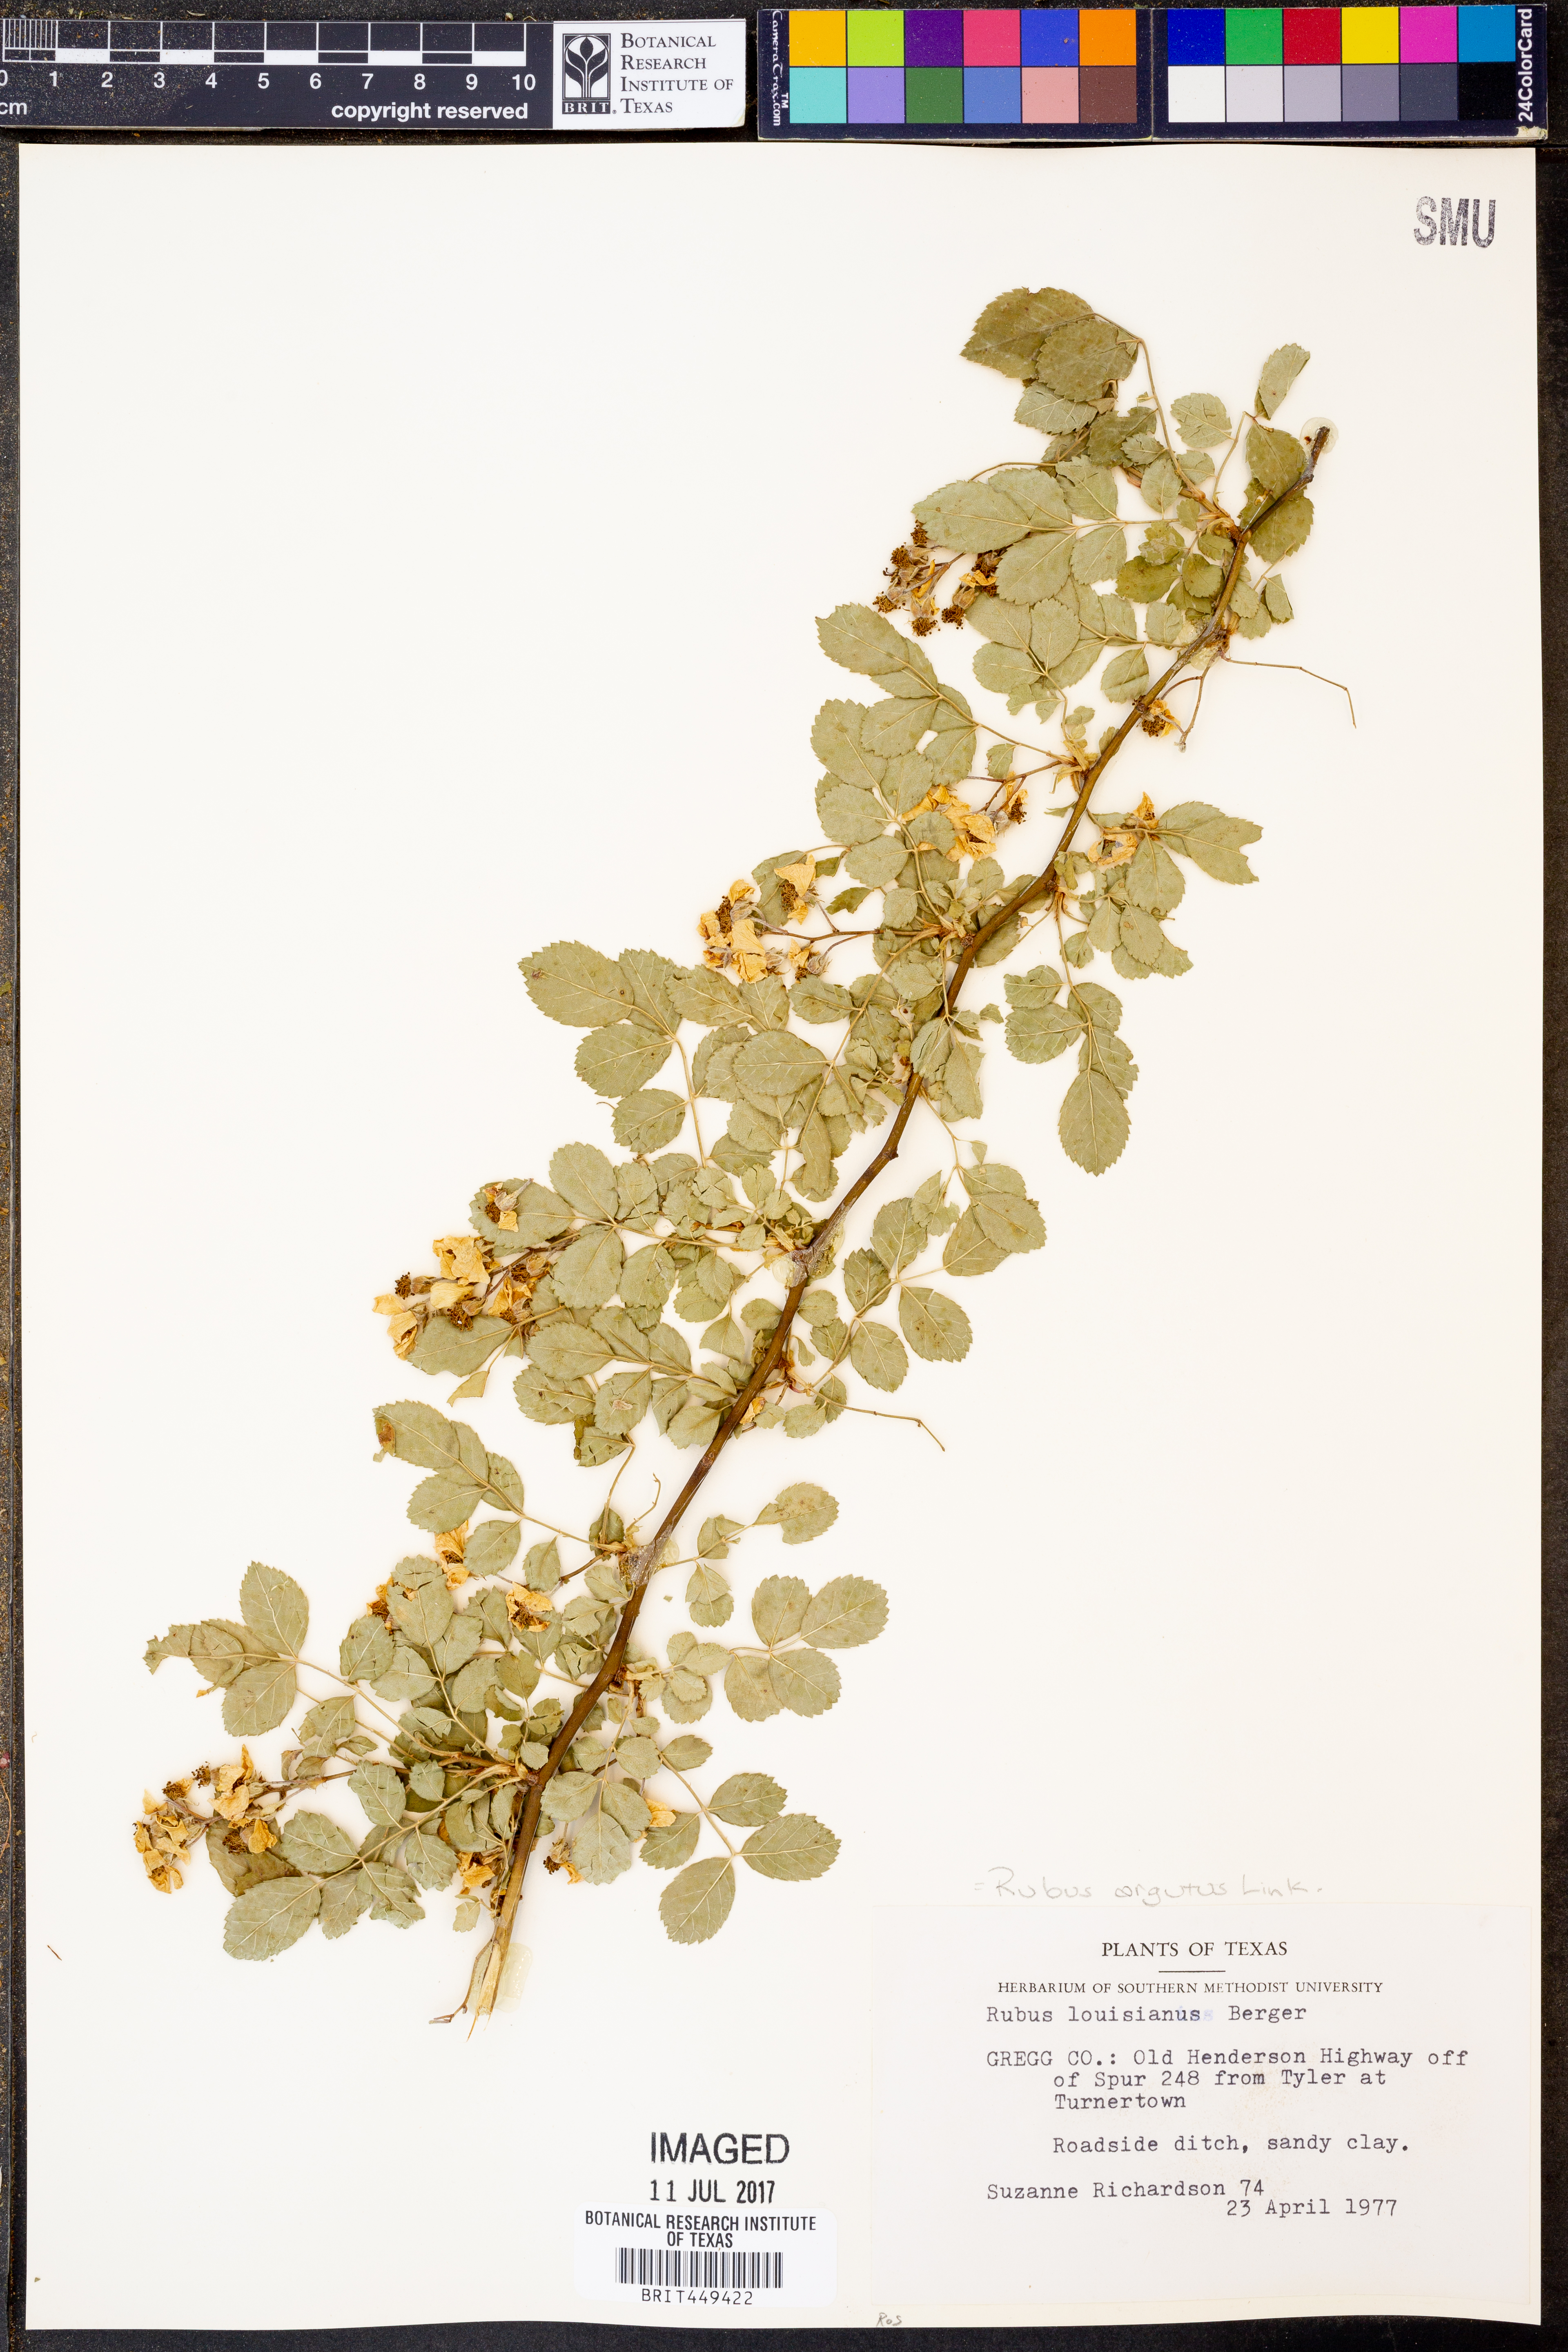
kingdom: Plantae
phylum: Tracheophyta
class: Magnoliopsida
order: Rosales
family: Rosaceae
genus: Rubus
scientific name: Rubus argutus
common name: Sawtooth blackberry
